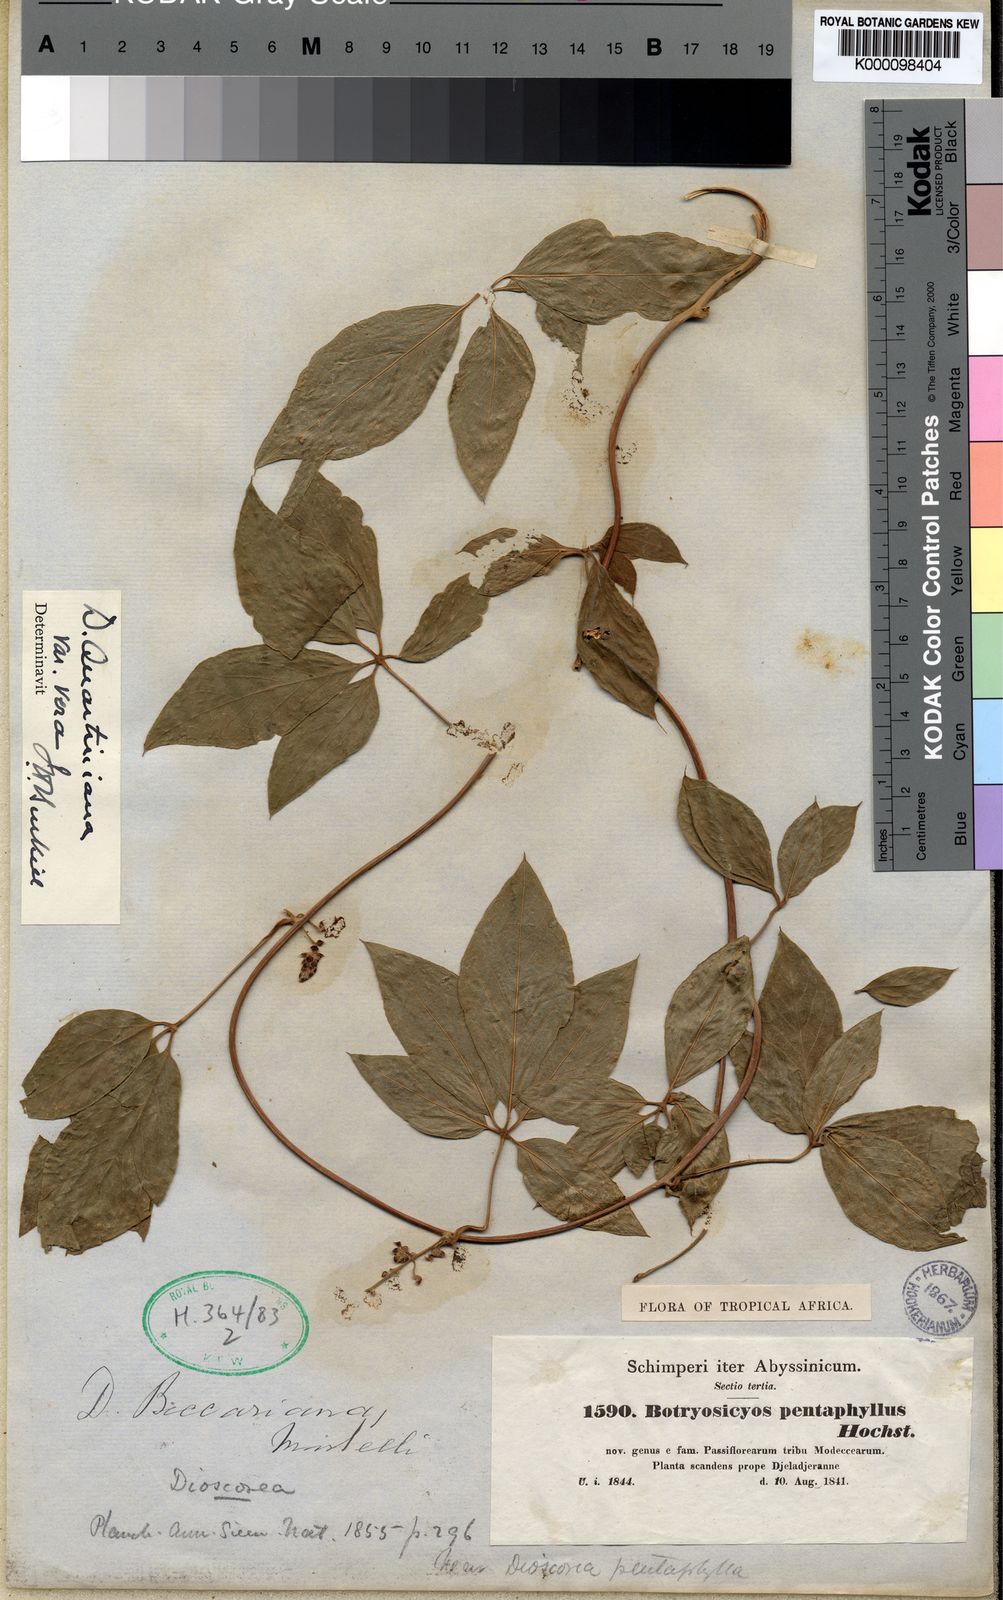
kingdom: Plantae
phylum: Tracheophyta
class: Liliopsida
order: Dioscoreales
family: Dioscoreaceae
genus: Dioscorea
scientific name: Dioscorea quartiniana
